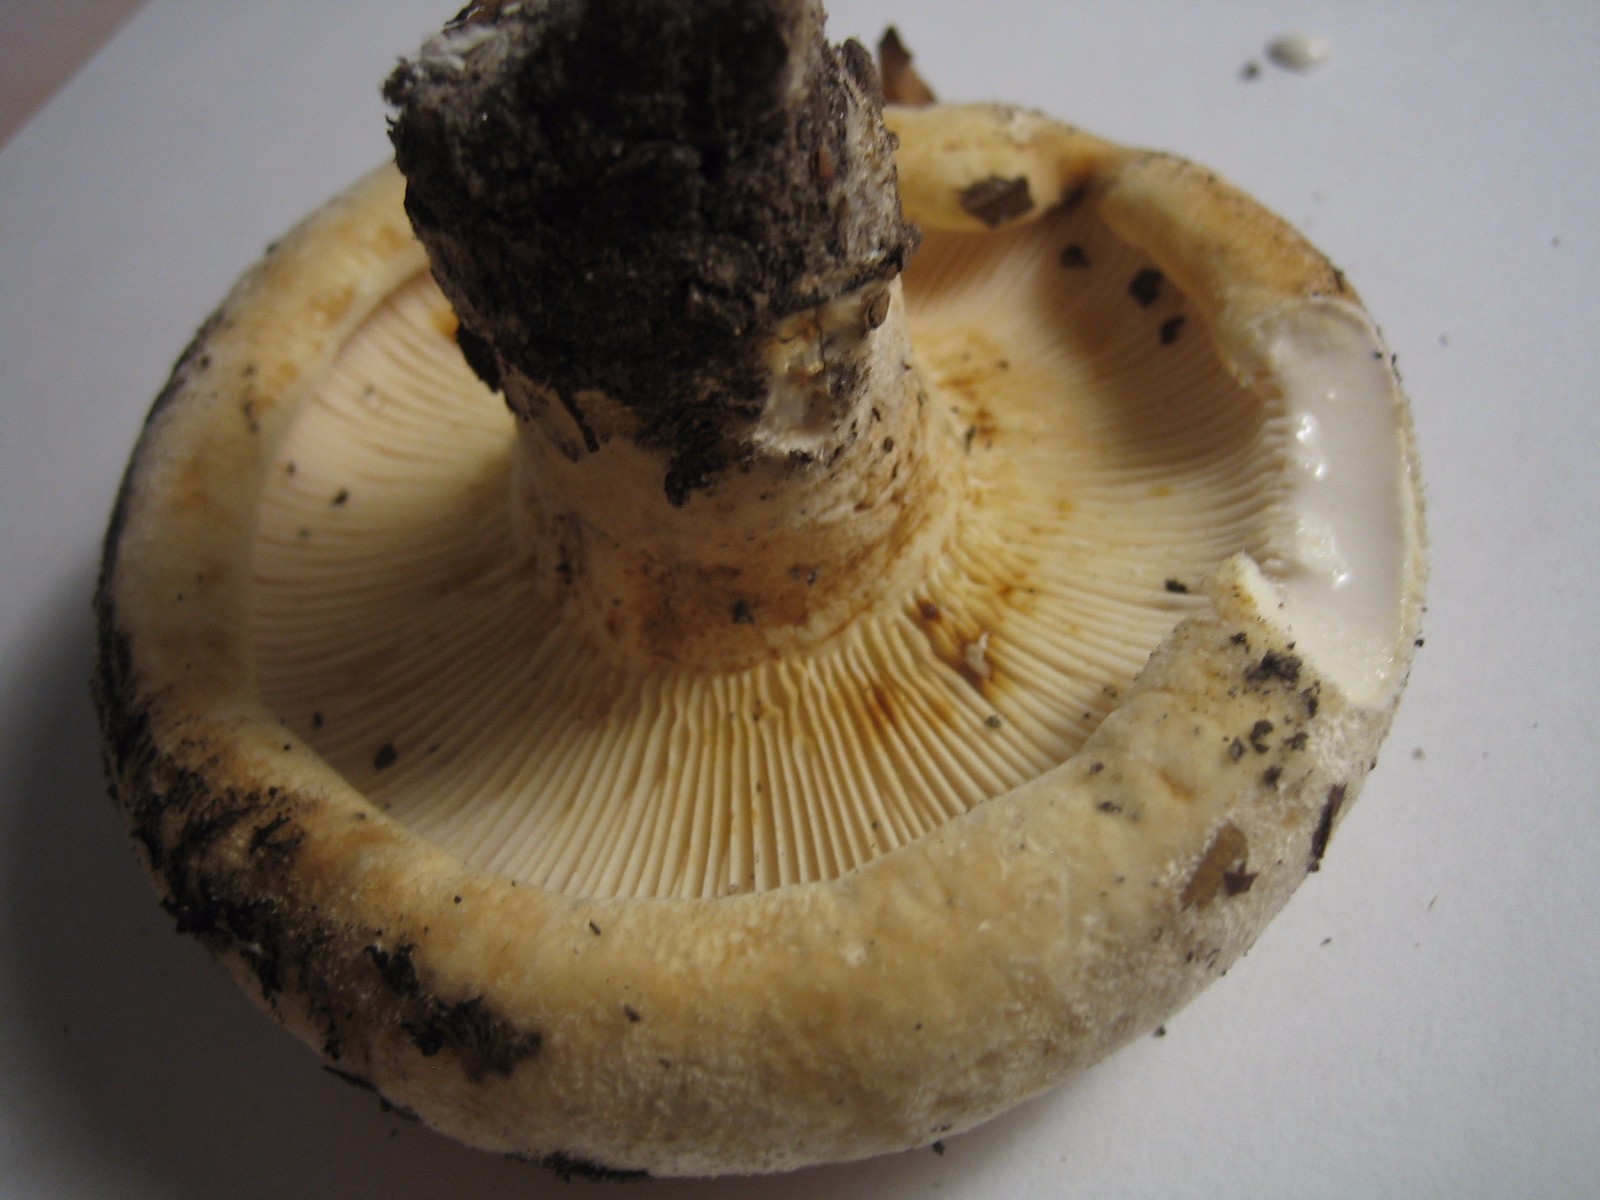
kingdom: Fungi
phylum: Basidiomycota
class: Agaricomycetes
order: Russulales
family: Russulaceae
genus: Lactifluus
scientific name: Lactifluus vellereus
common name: hvidfiltet mælkehat
